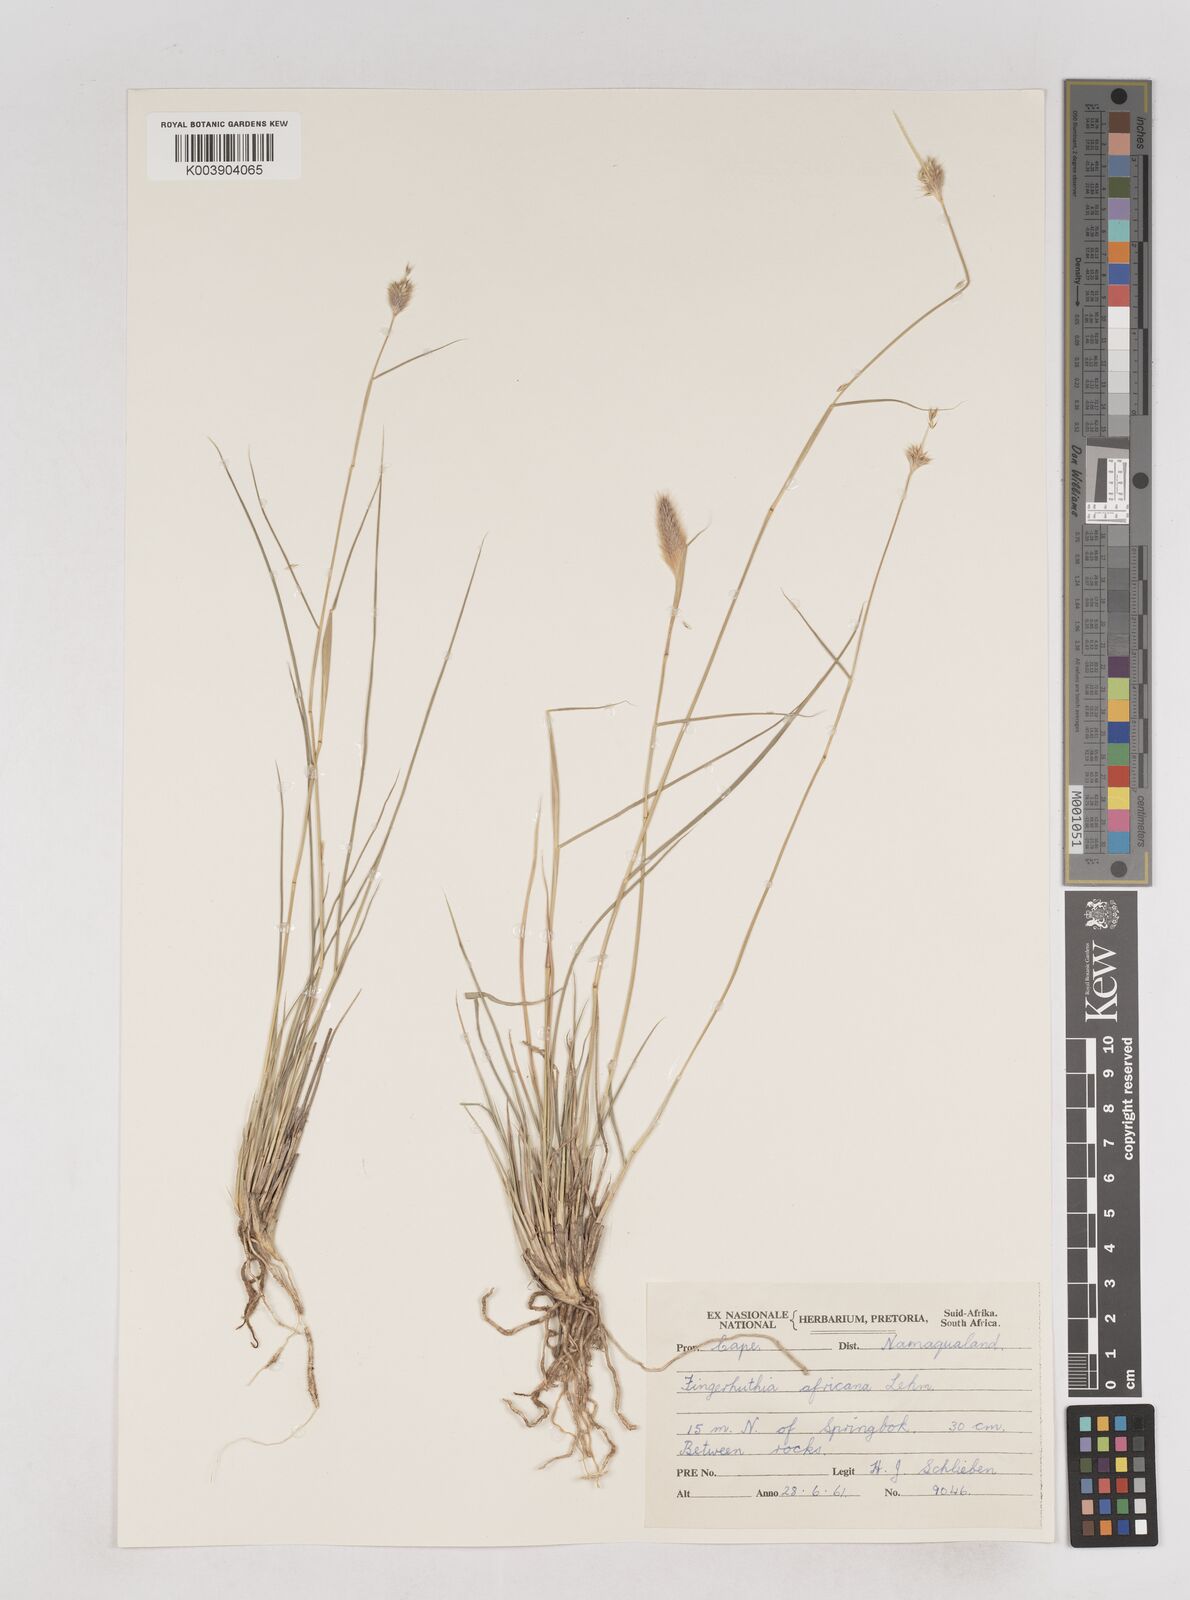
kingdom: Plantae
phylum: Tracheophyta
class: Liliopsida
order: Poales
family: Poaceae
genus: Fingerhuthia
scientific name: Fingerhuthia africana
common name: Zulu fescue
